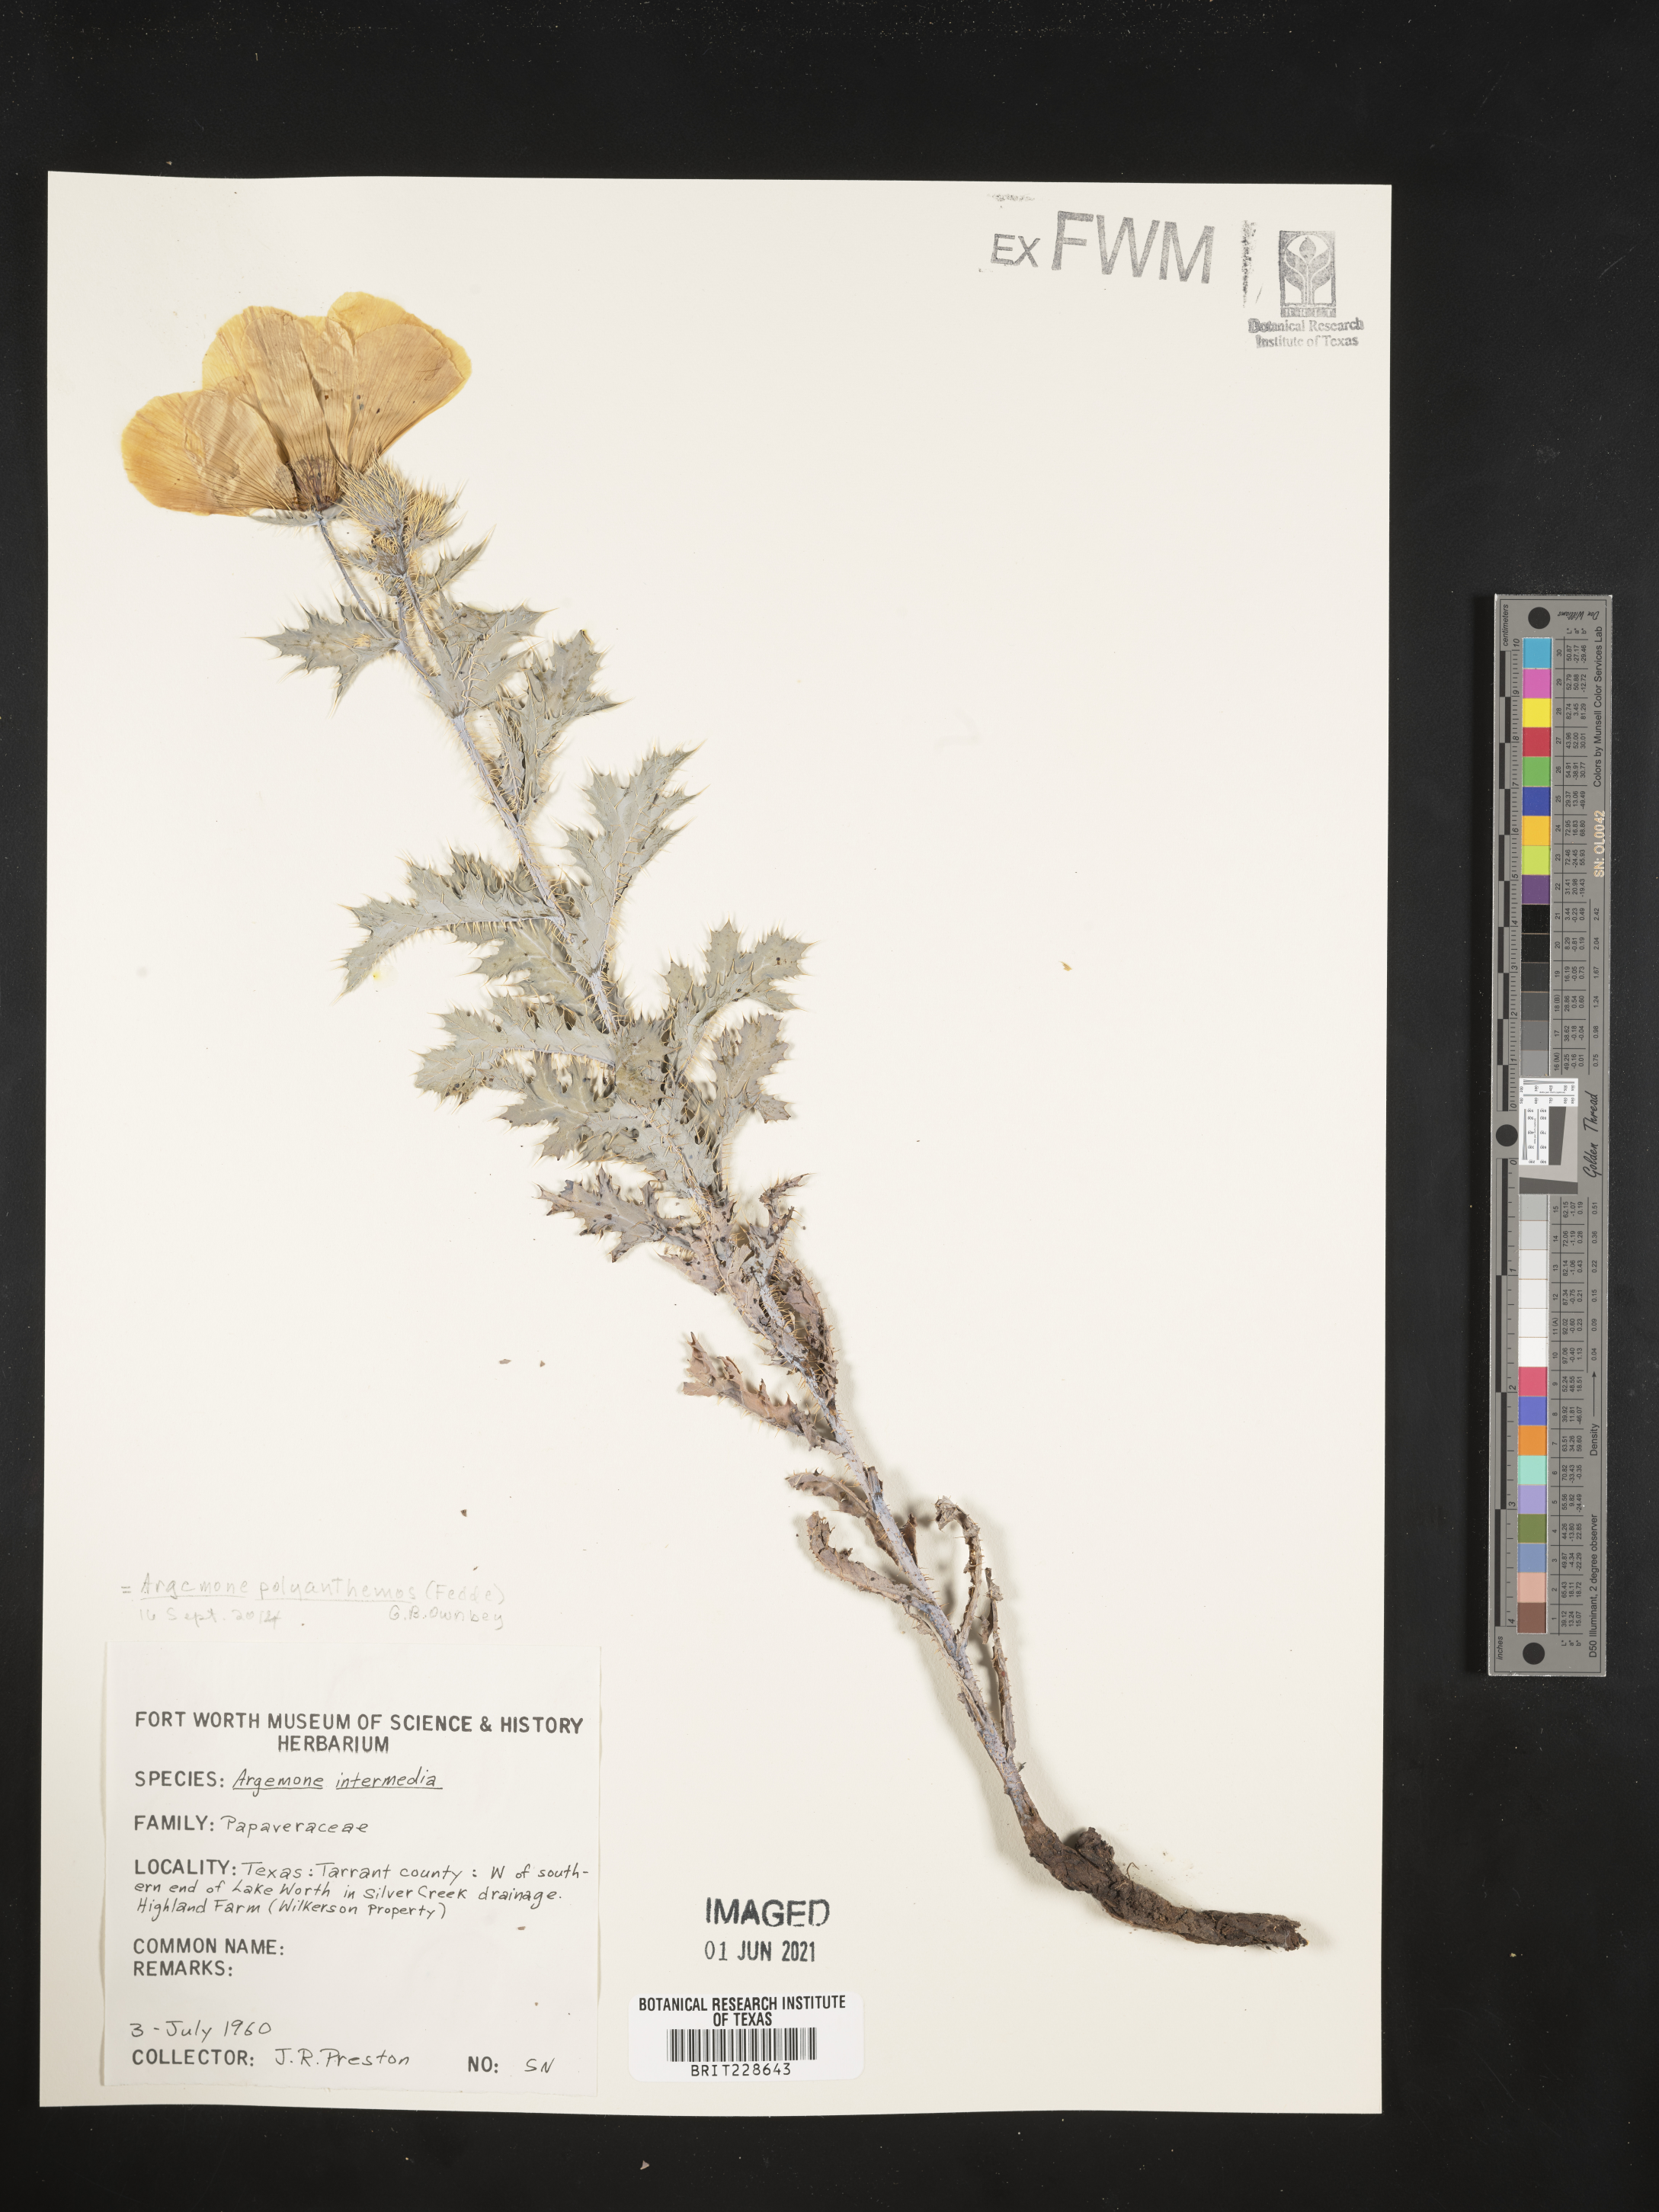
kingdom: Plantae
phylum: Tracheophyta
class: Magnoliopsida
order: Ranunculales
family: Papaveraceae
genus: Argemone
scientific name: Argemone polyanthemos
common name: Plains prickly-poppy
